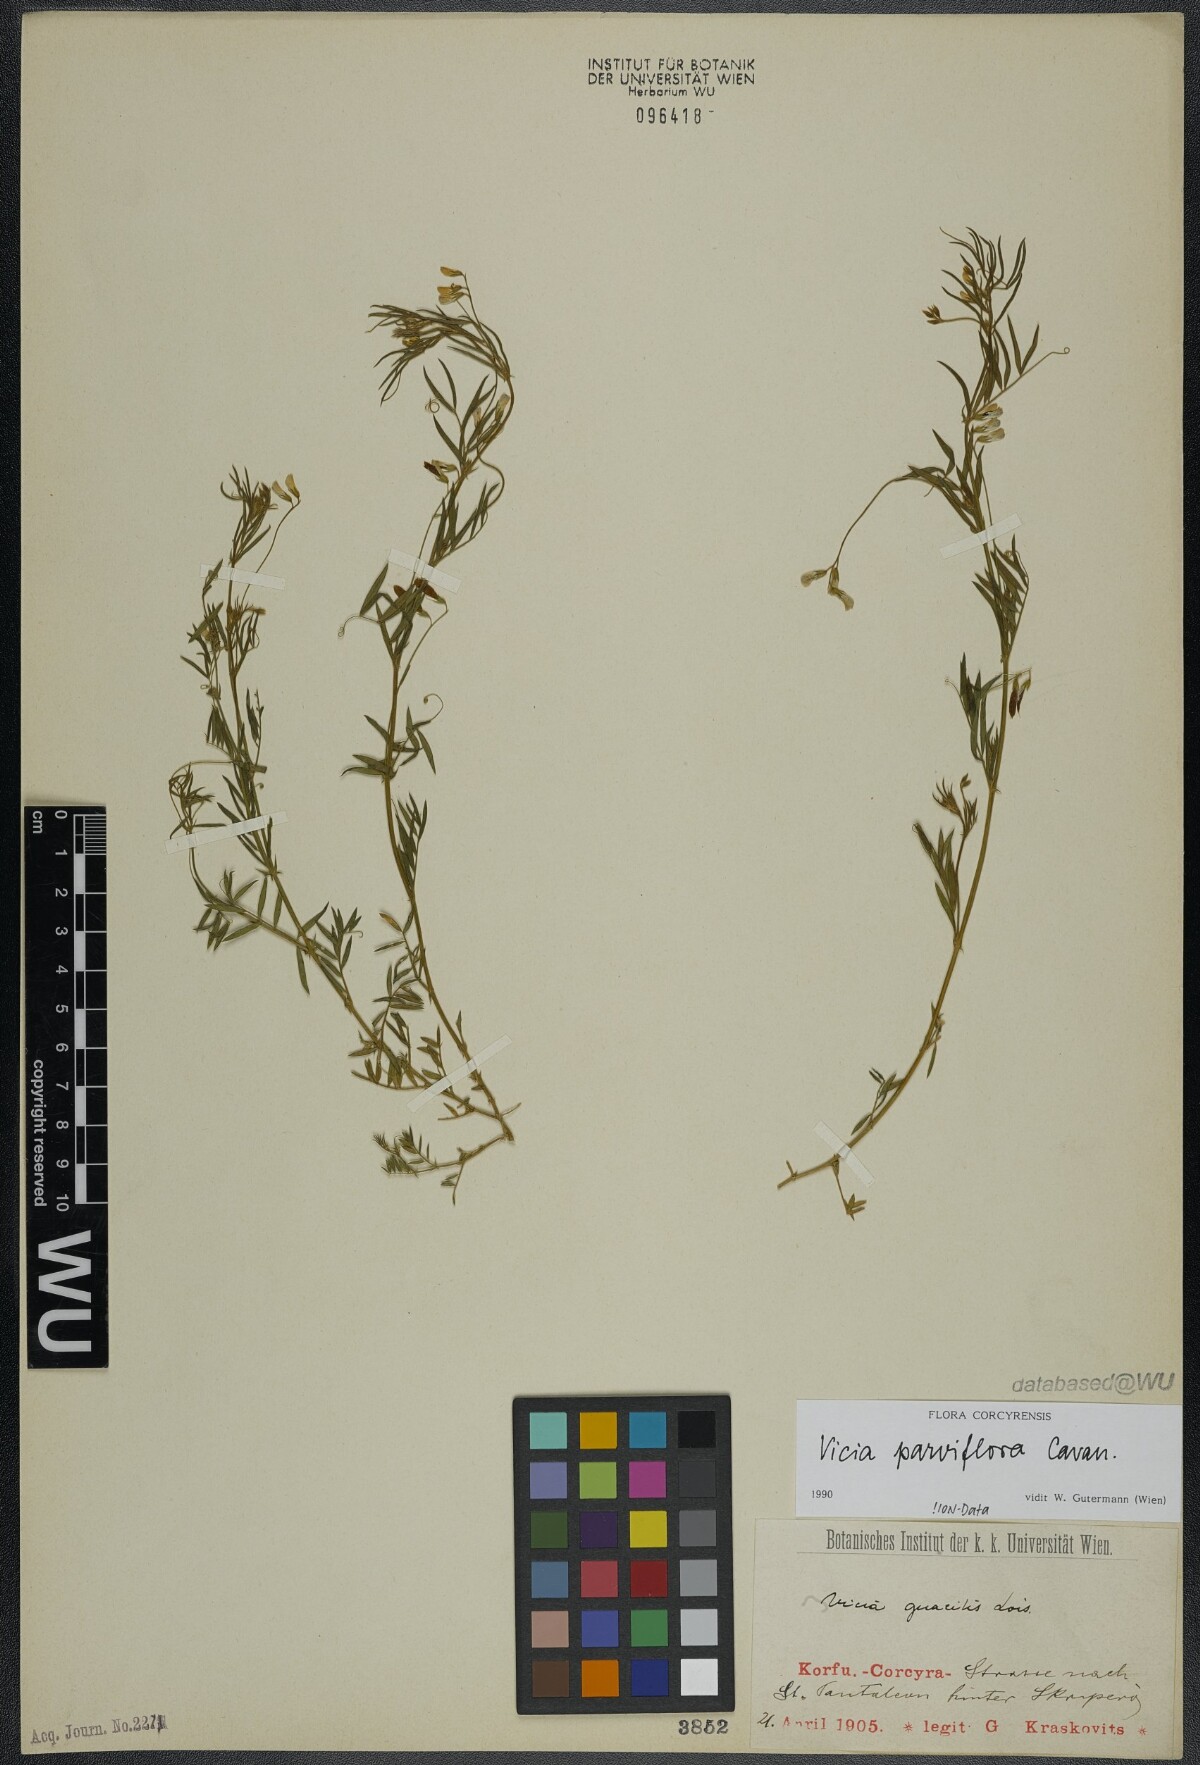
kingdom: Plantae
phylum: Tracheophyta
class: Magnoliopsida
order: Fabales
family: Fabaceae
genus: Vicia
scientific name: Vicia parviflora
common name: Slender tare
